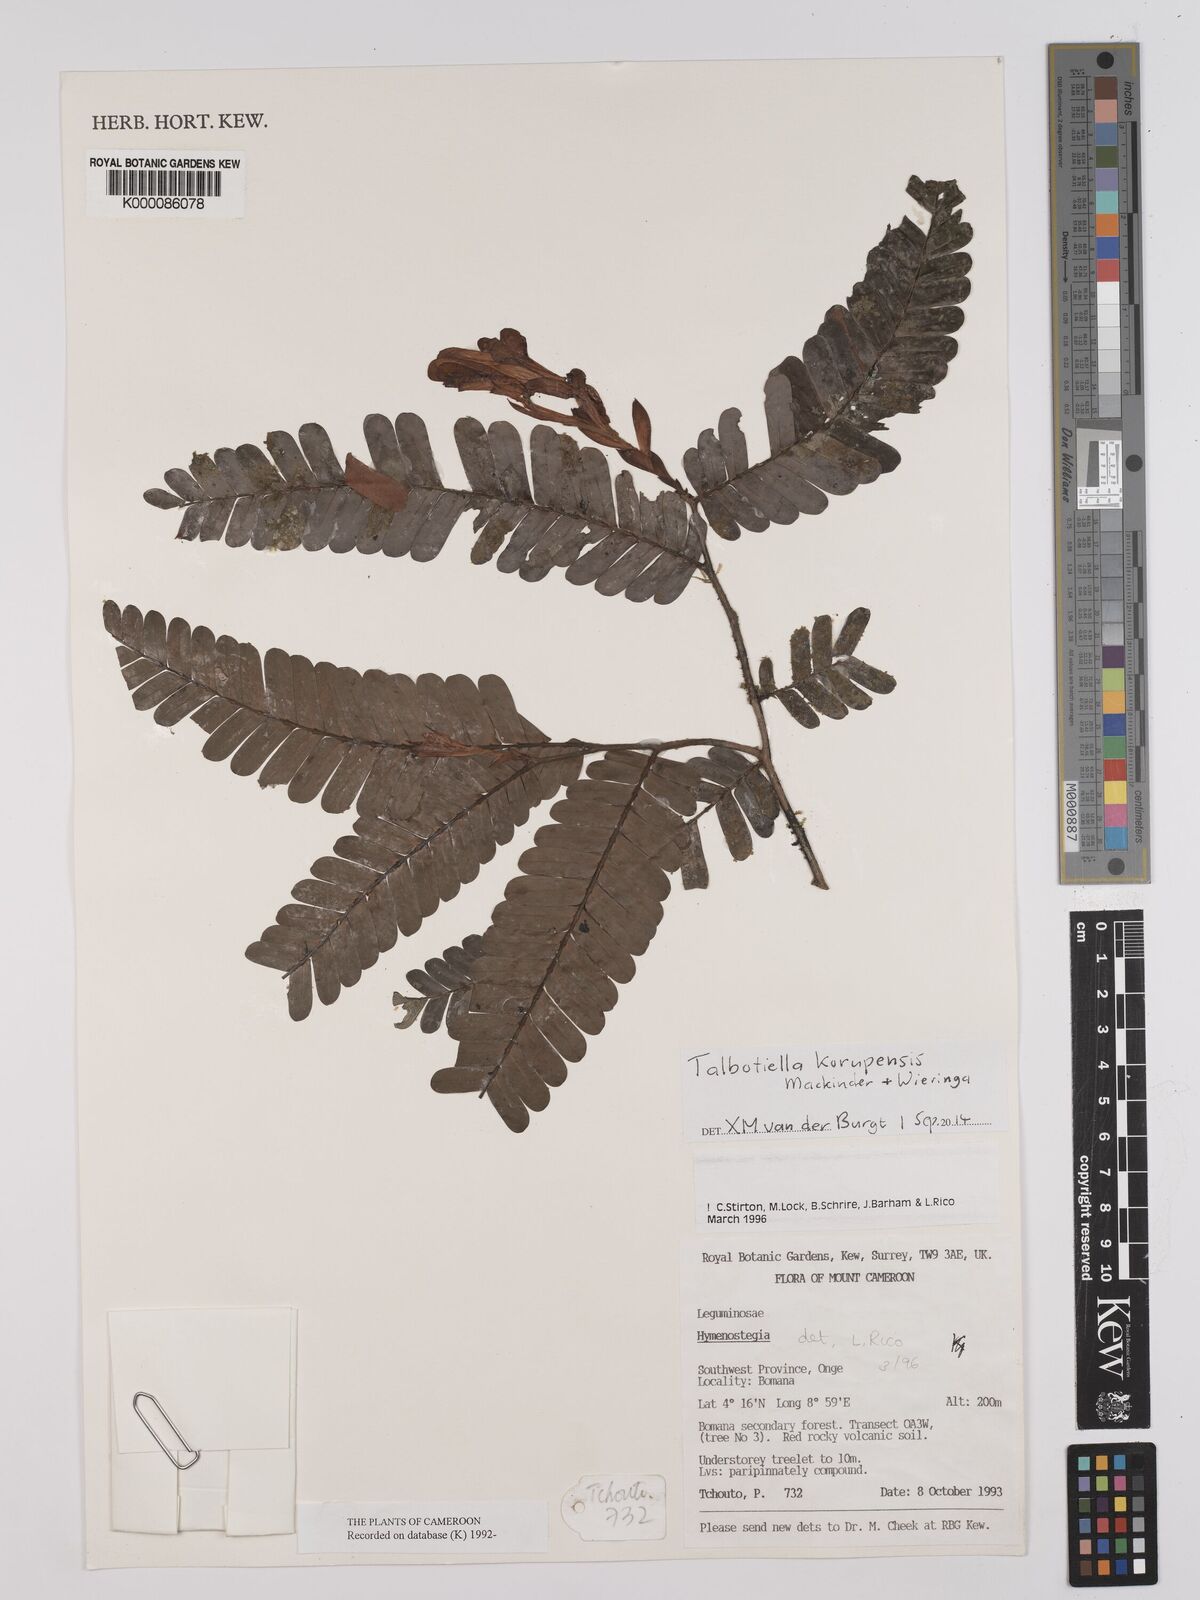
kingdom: Plantae
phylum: Tracheophyta
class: Magnoliopsida
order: Fabales
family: Fabaceae
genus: Hymenostegia
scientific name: Hymenostegia
